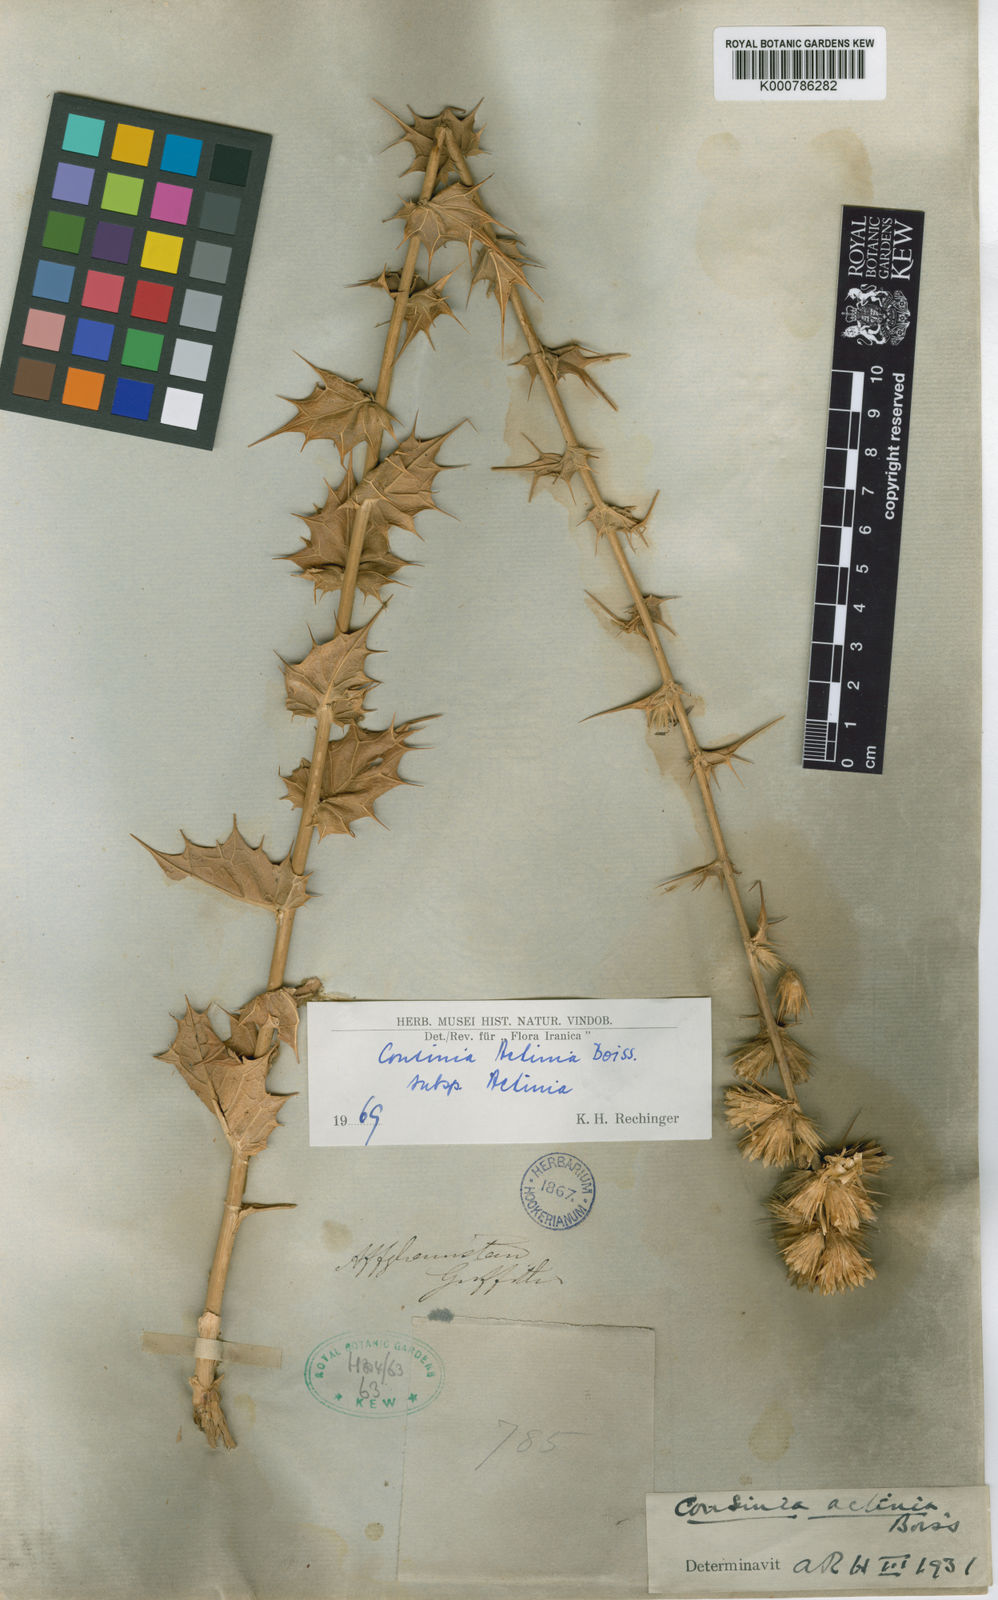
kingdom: Plantae
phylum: Tracheophyta
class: Magnoliopsida
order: Asterales
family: Asteraceae
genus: Cousinia
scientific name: Cousinia actinia
